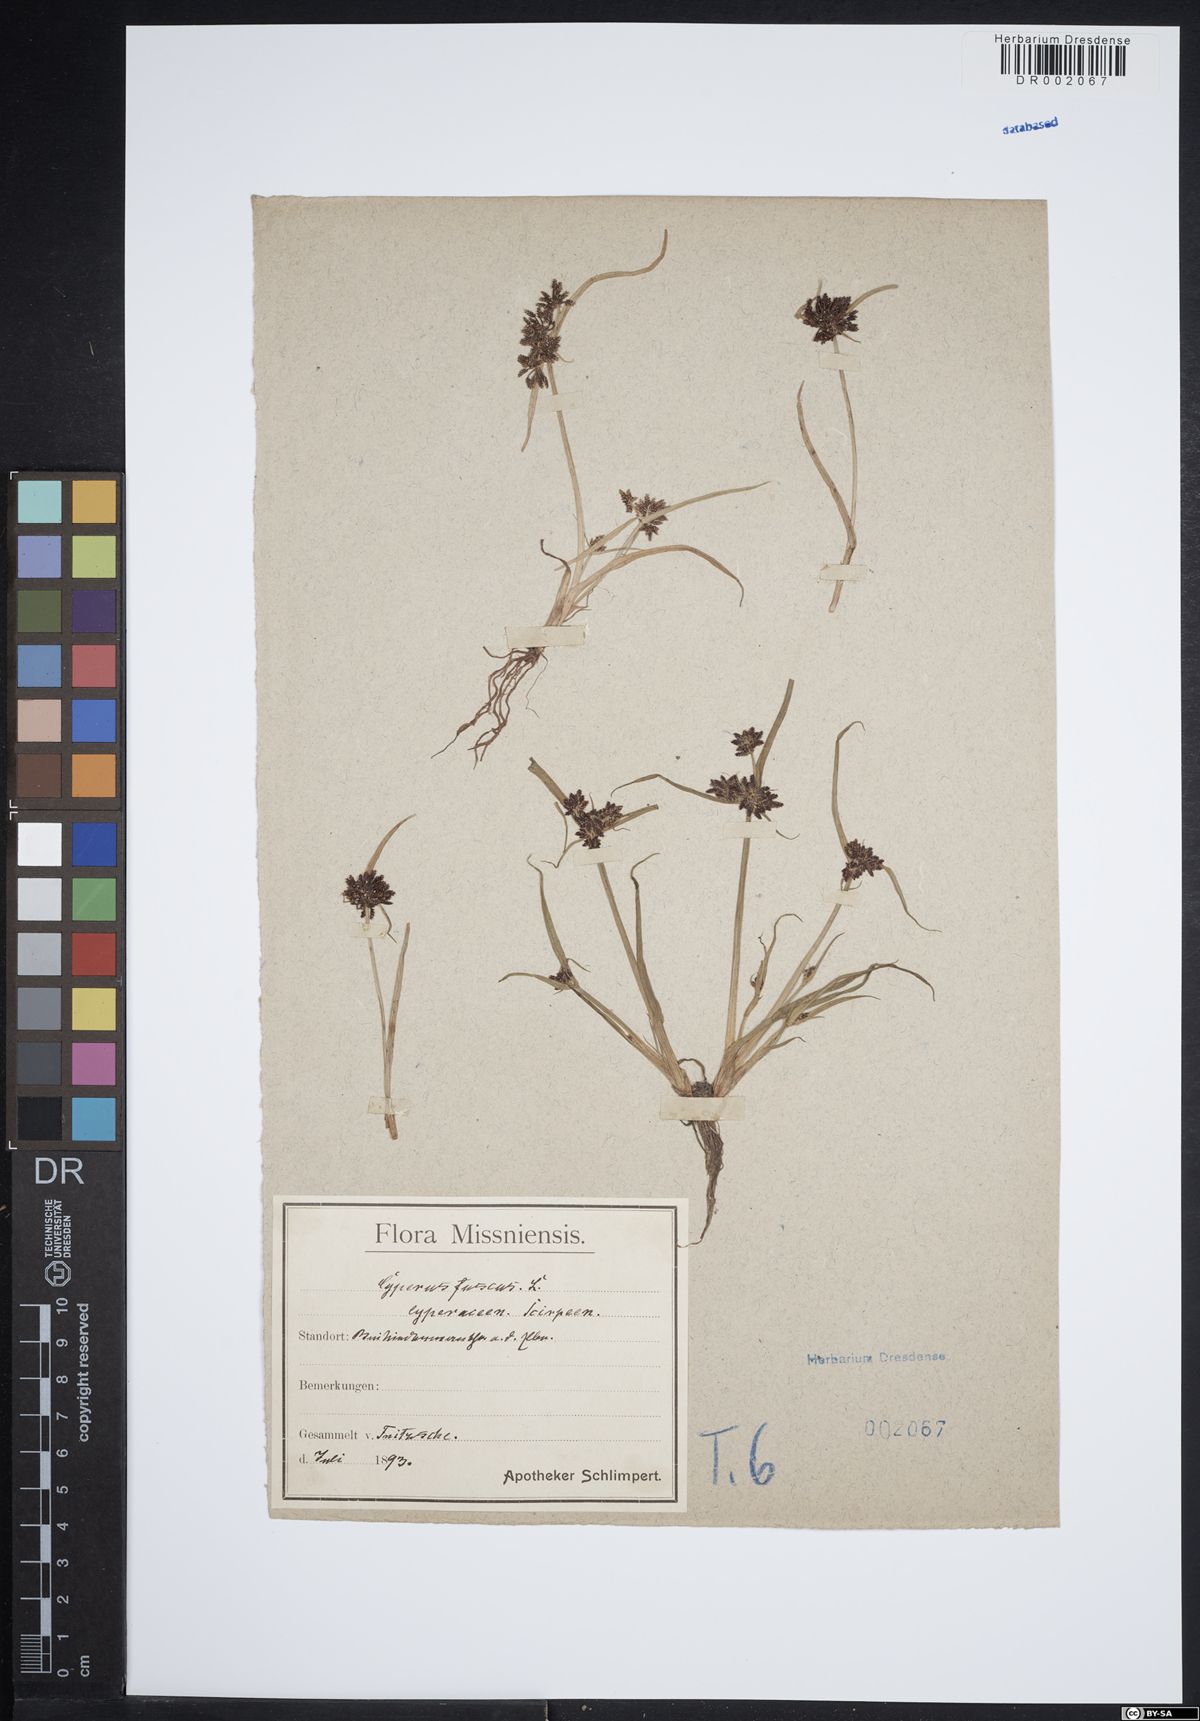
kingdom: Plantae
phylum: Tracheophyta
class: Liliopsida
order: Poales
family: Cyperaceae
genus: Cyperus
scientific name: Cyperus fuscus
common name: Brown galingale
